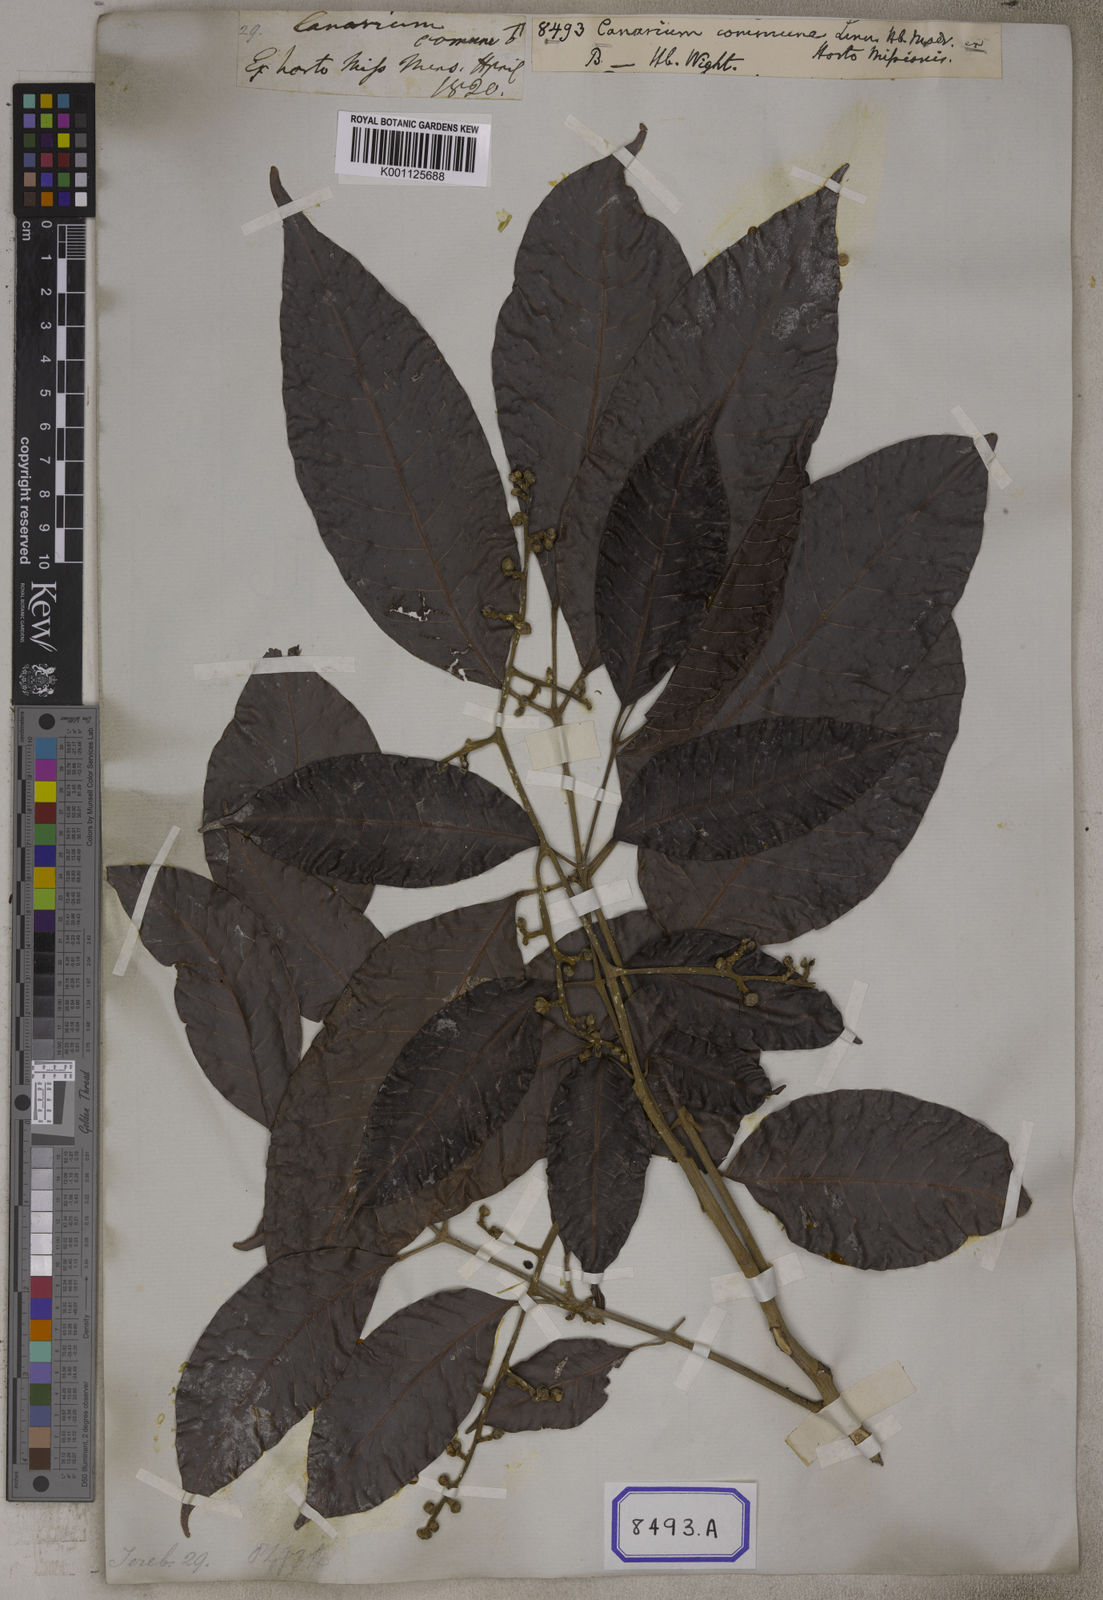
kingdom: Plantae
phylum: Tracheophyta
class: Magnoliopsida
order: Sapindales
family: Burseraceae
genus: Canarium
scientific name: Canarium indicum
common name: Canarium-nut
